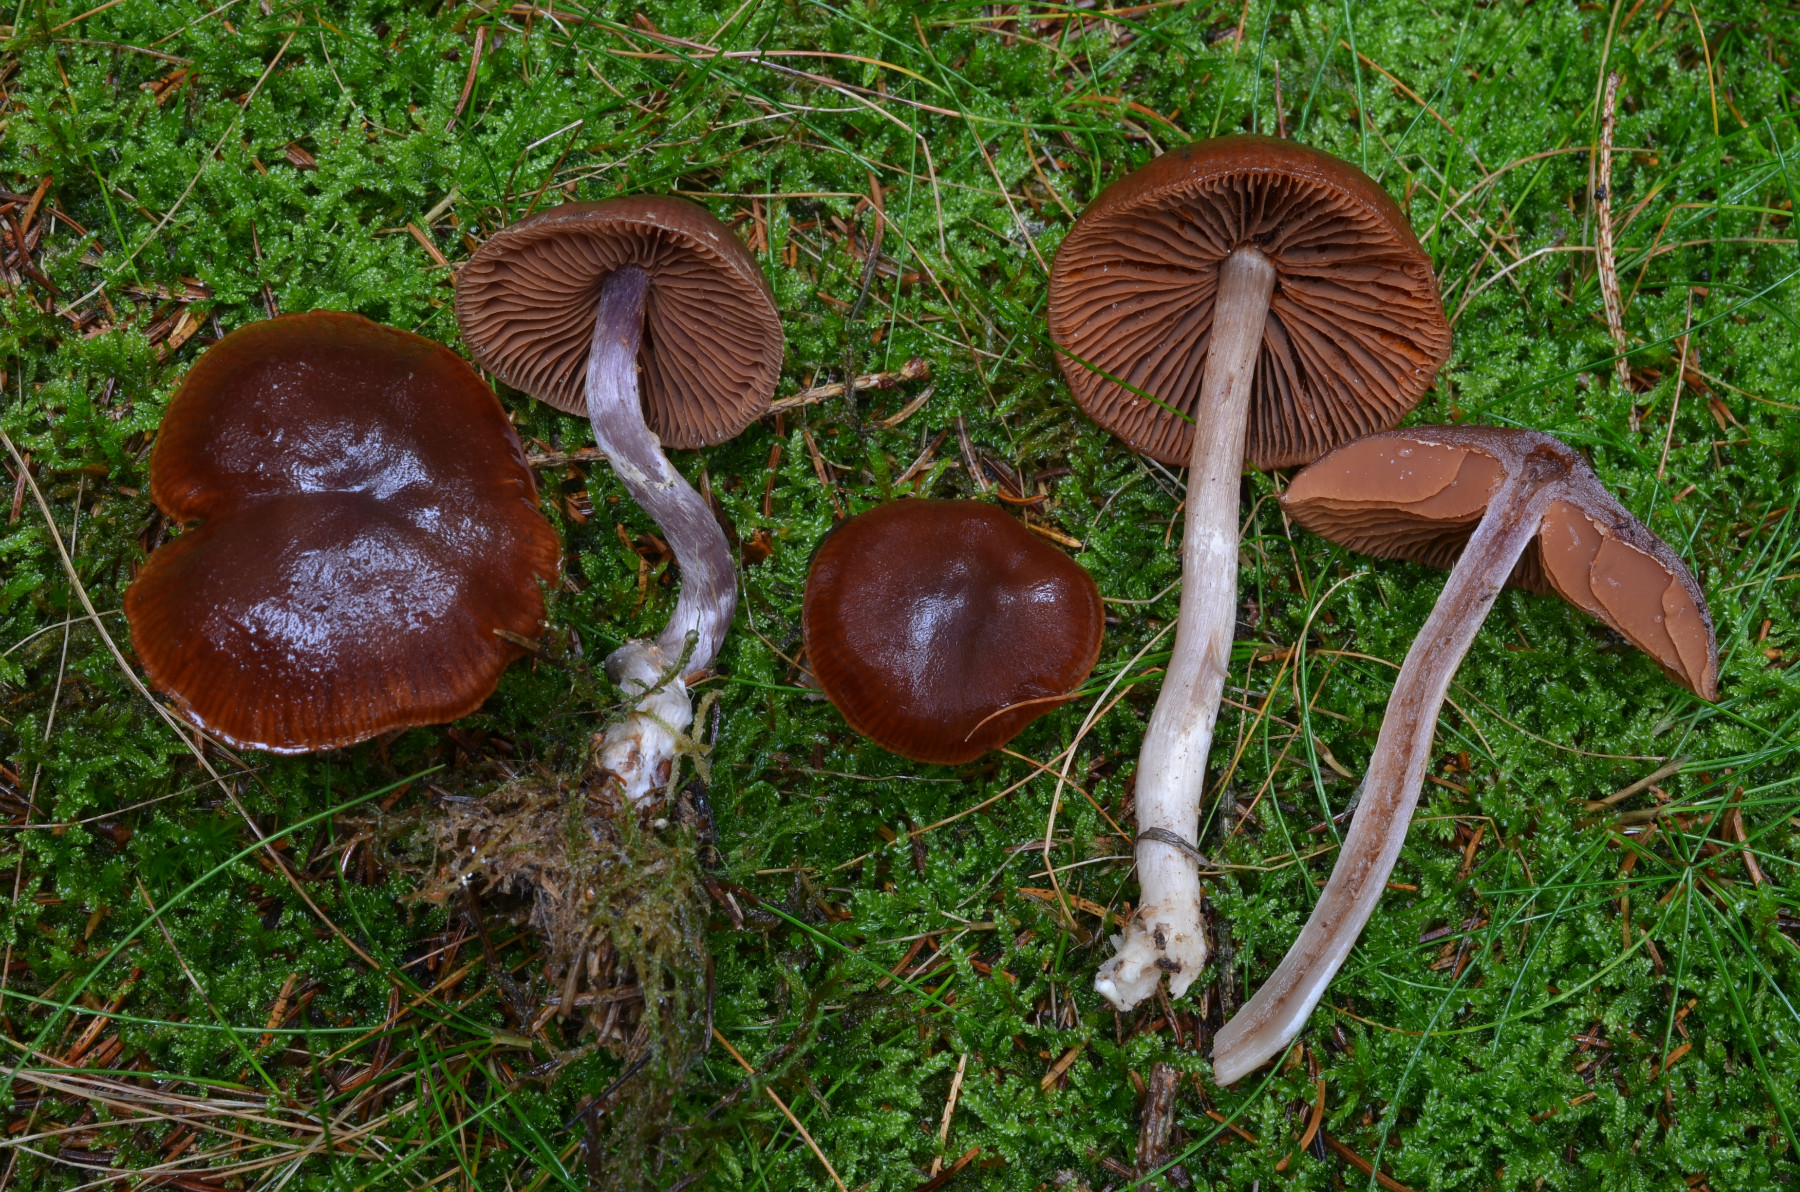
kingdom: Fungi
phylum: Basidiomycota
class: Agaricomycetes
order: Agaricales
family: Cortinariaceae
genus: Cortinarius
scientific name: Cortinarius tortuosus
